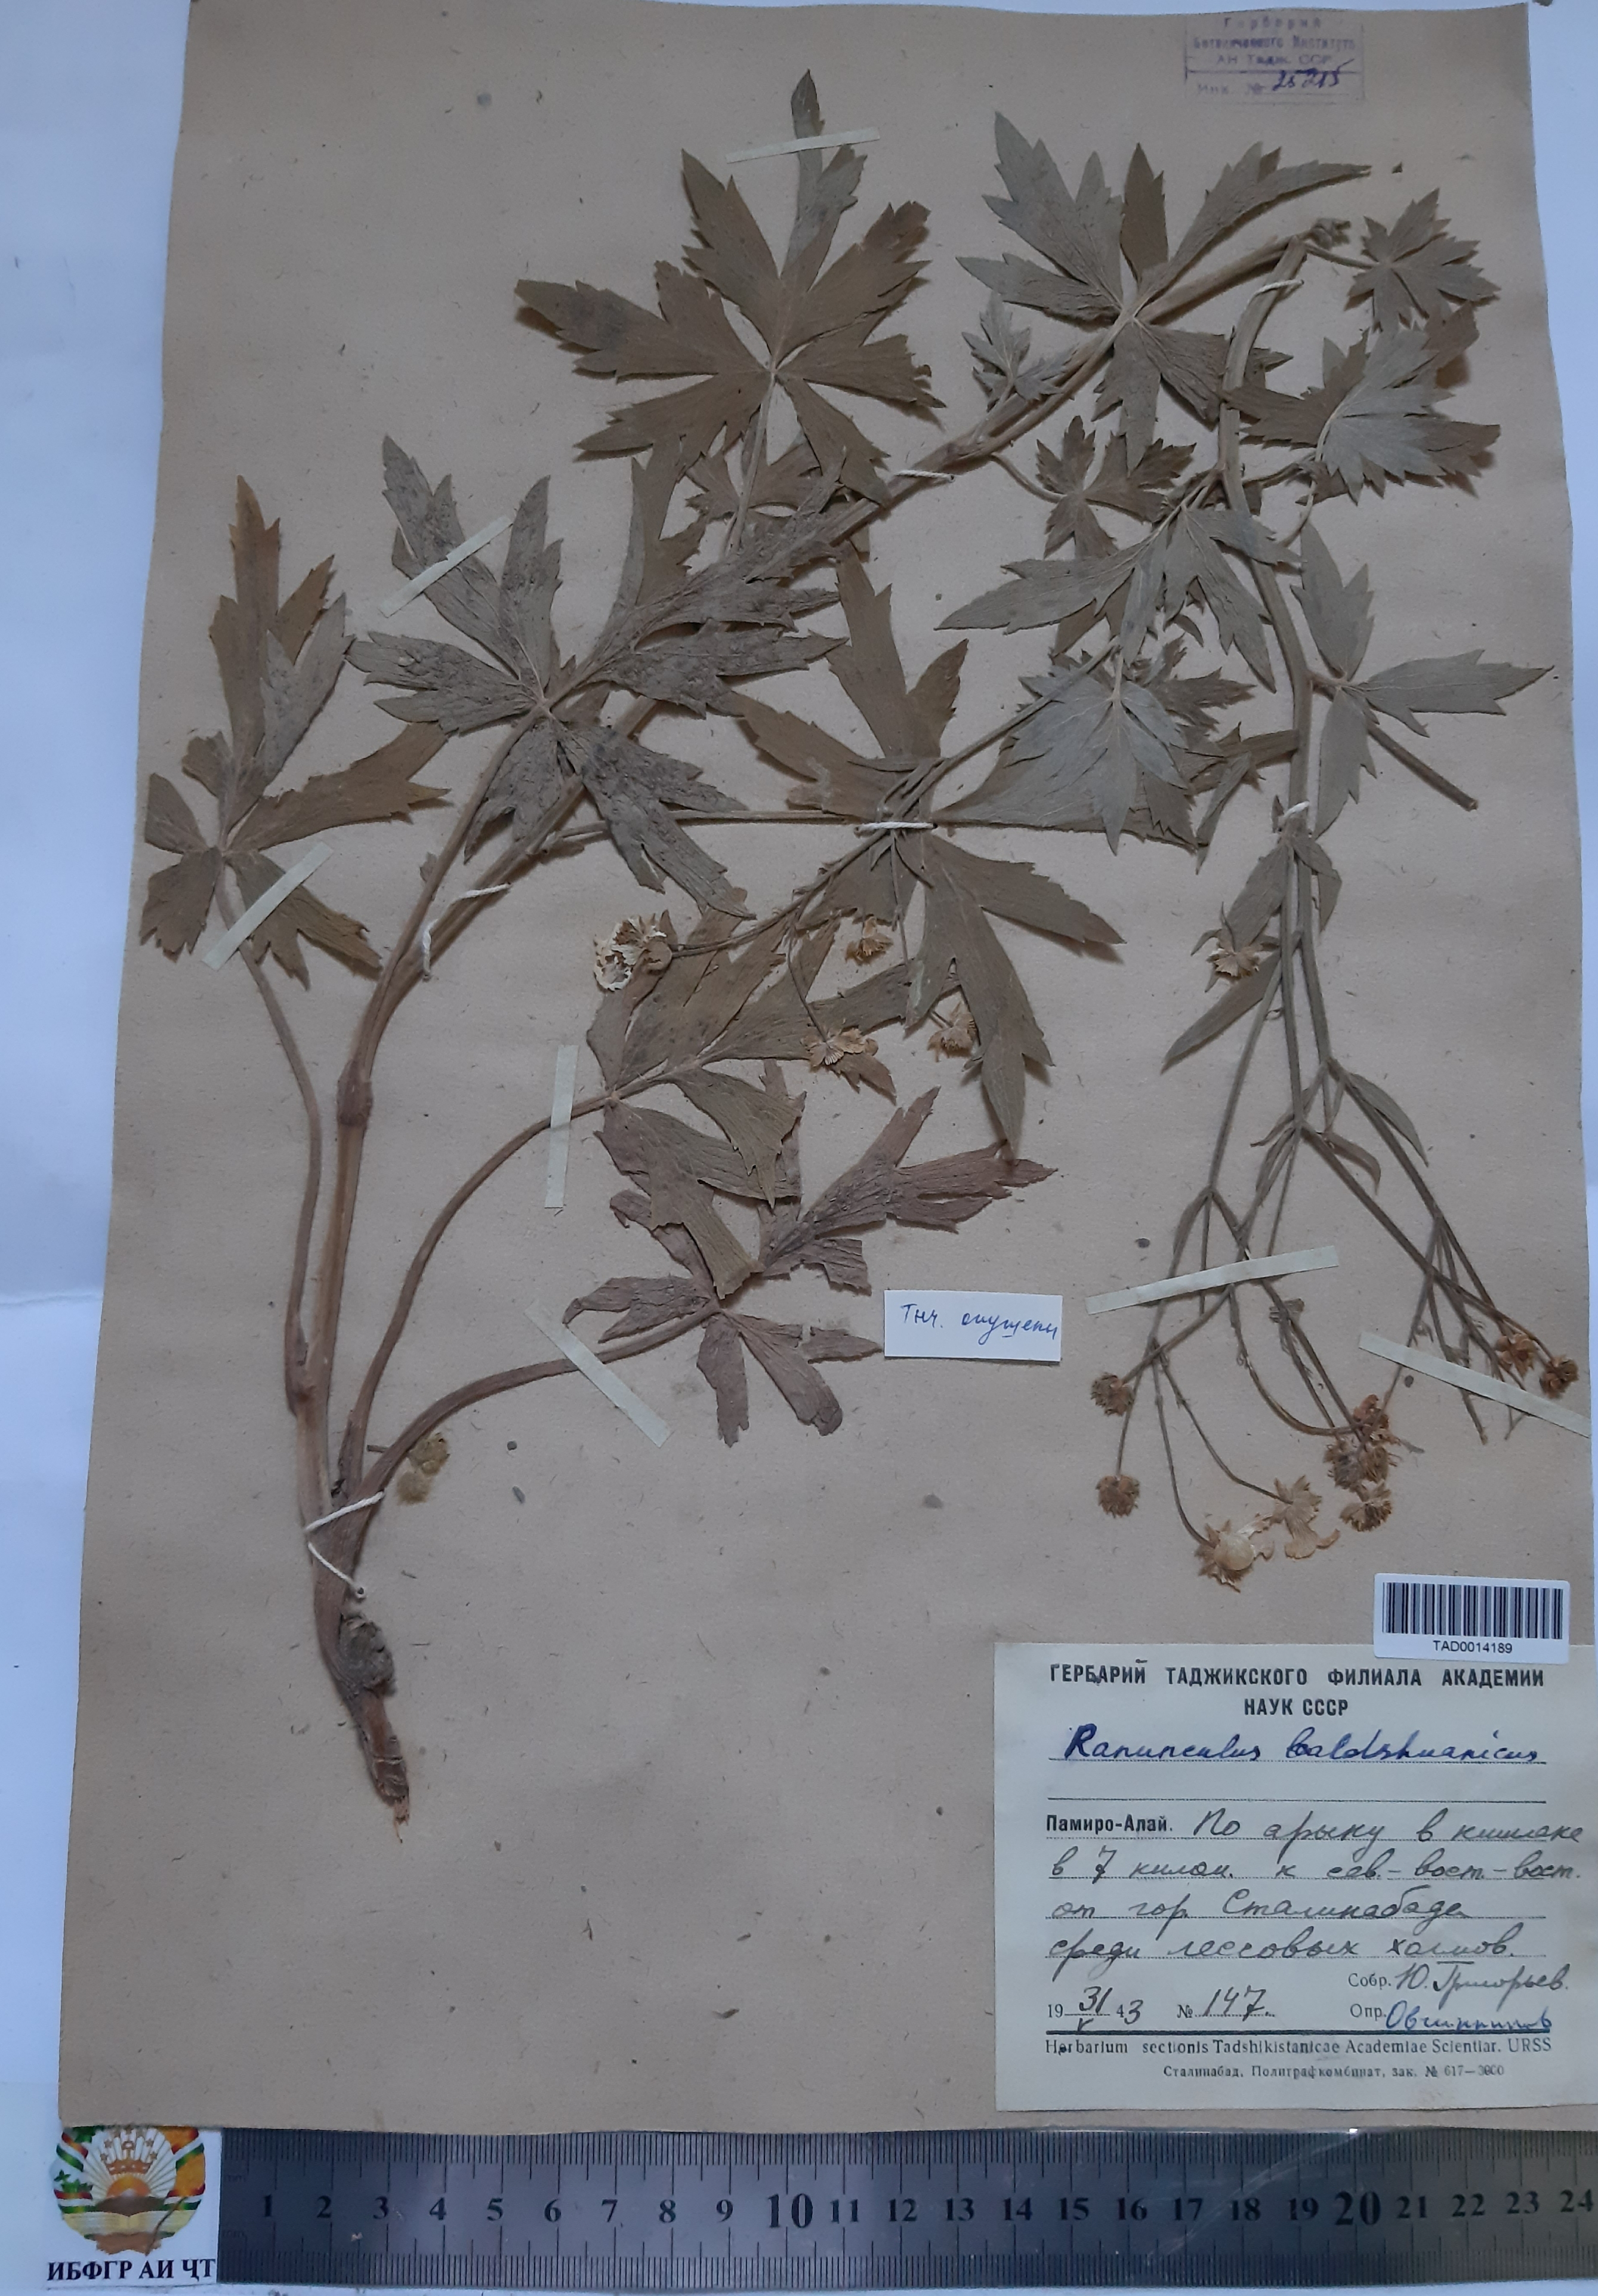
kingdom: Plantae
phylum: Tracheophyta
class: Magnoliopsida
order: Ranunculales
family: Ranunculaceae
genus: Ranunculus
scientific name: Ranunculus baldshuanicus
